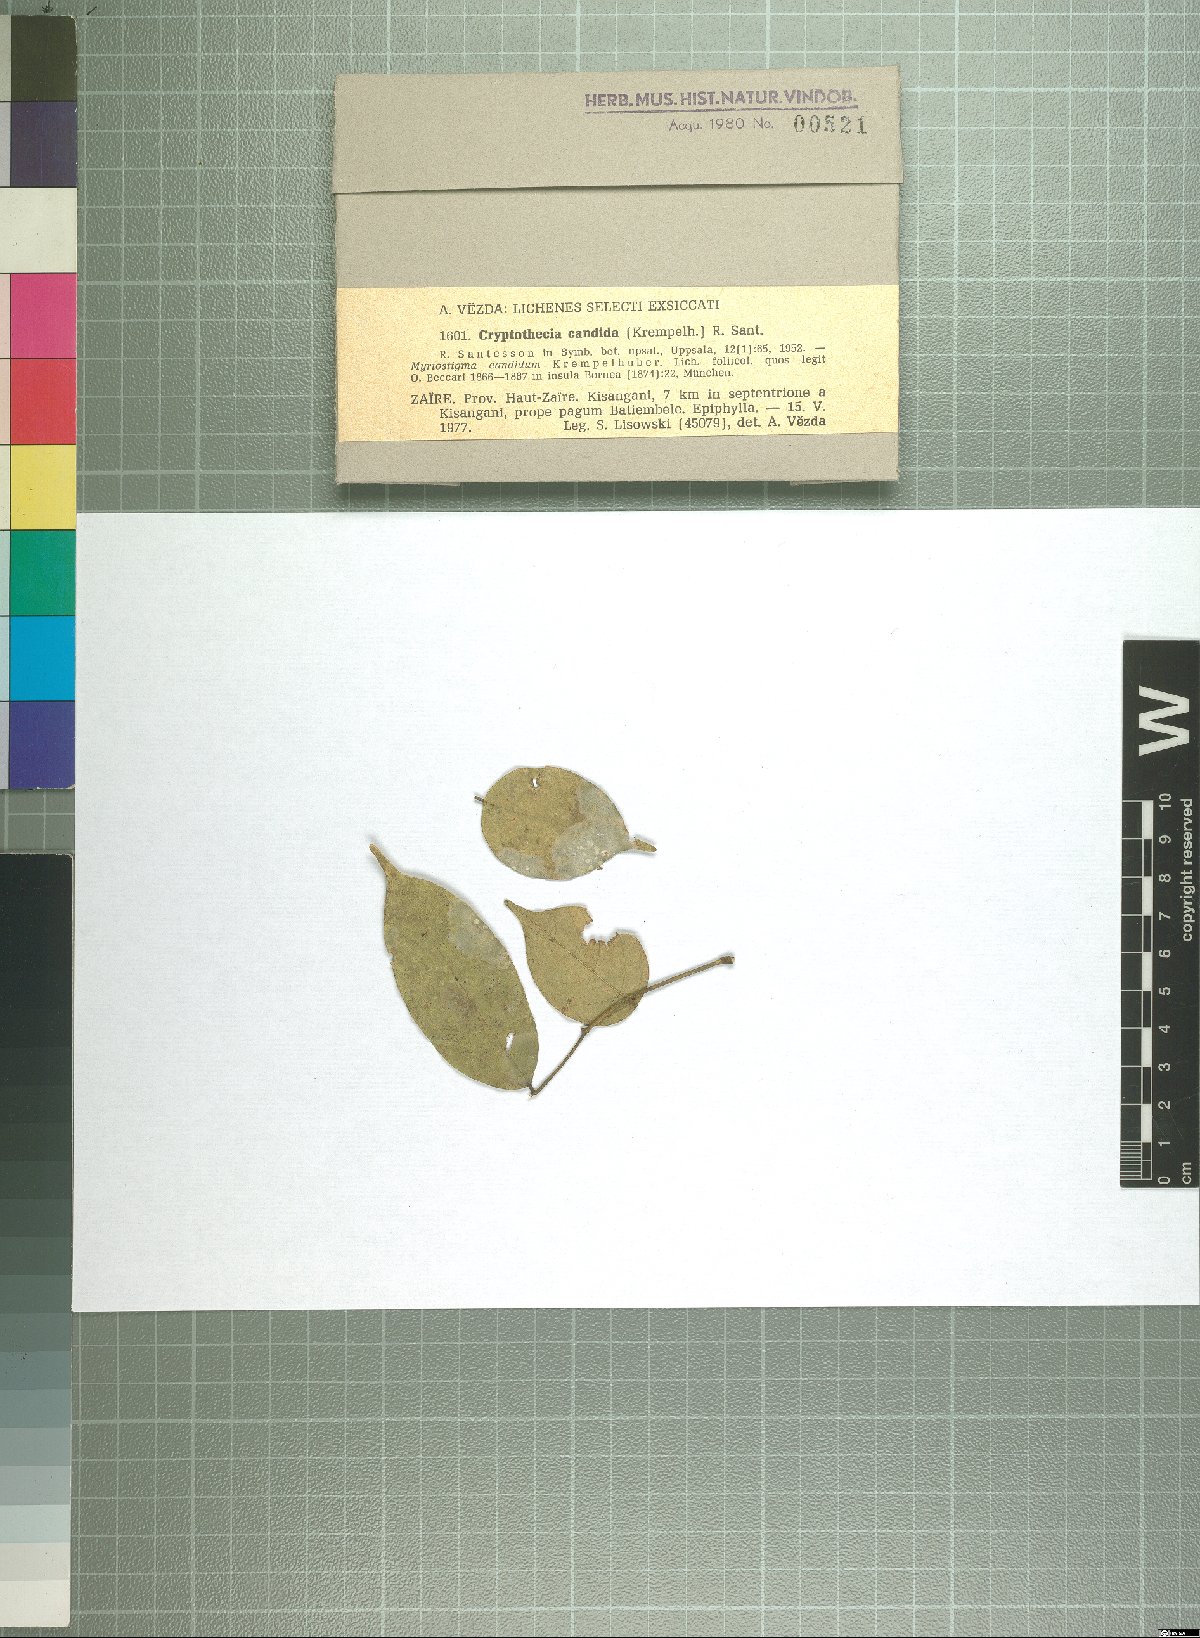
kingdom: Fungi
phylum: Ascomycota
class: Arthoniomycetes
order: Arthoniales
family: Arthoniaceae
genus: Cryptothecia
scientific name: Cryptothecia
